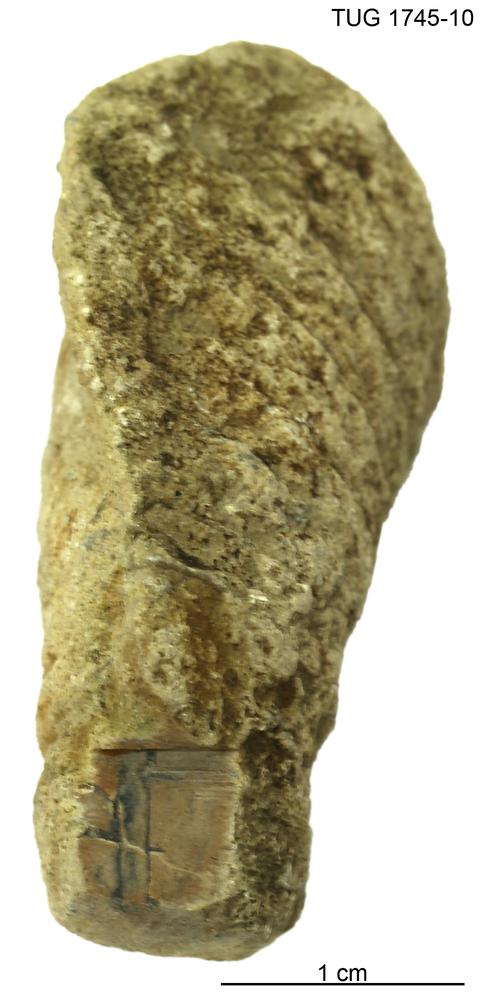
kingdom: Animalia
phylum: Mollusca
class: Cephalopoda
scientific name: Cephalopoda
